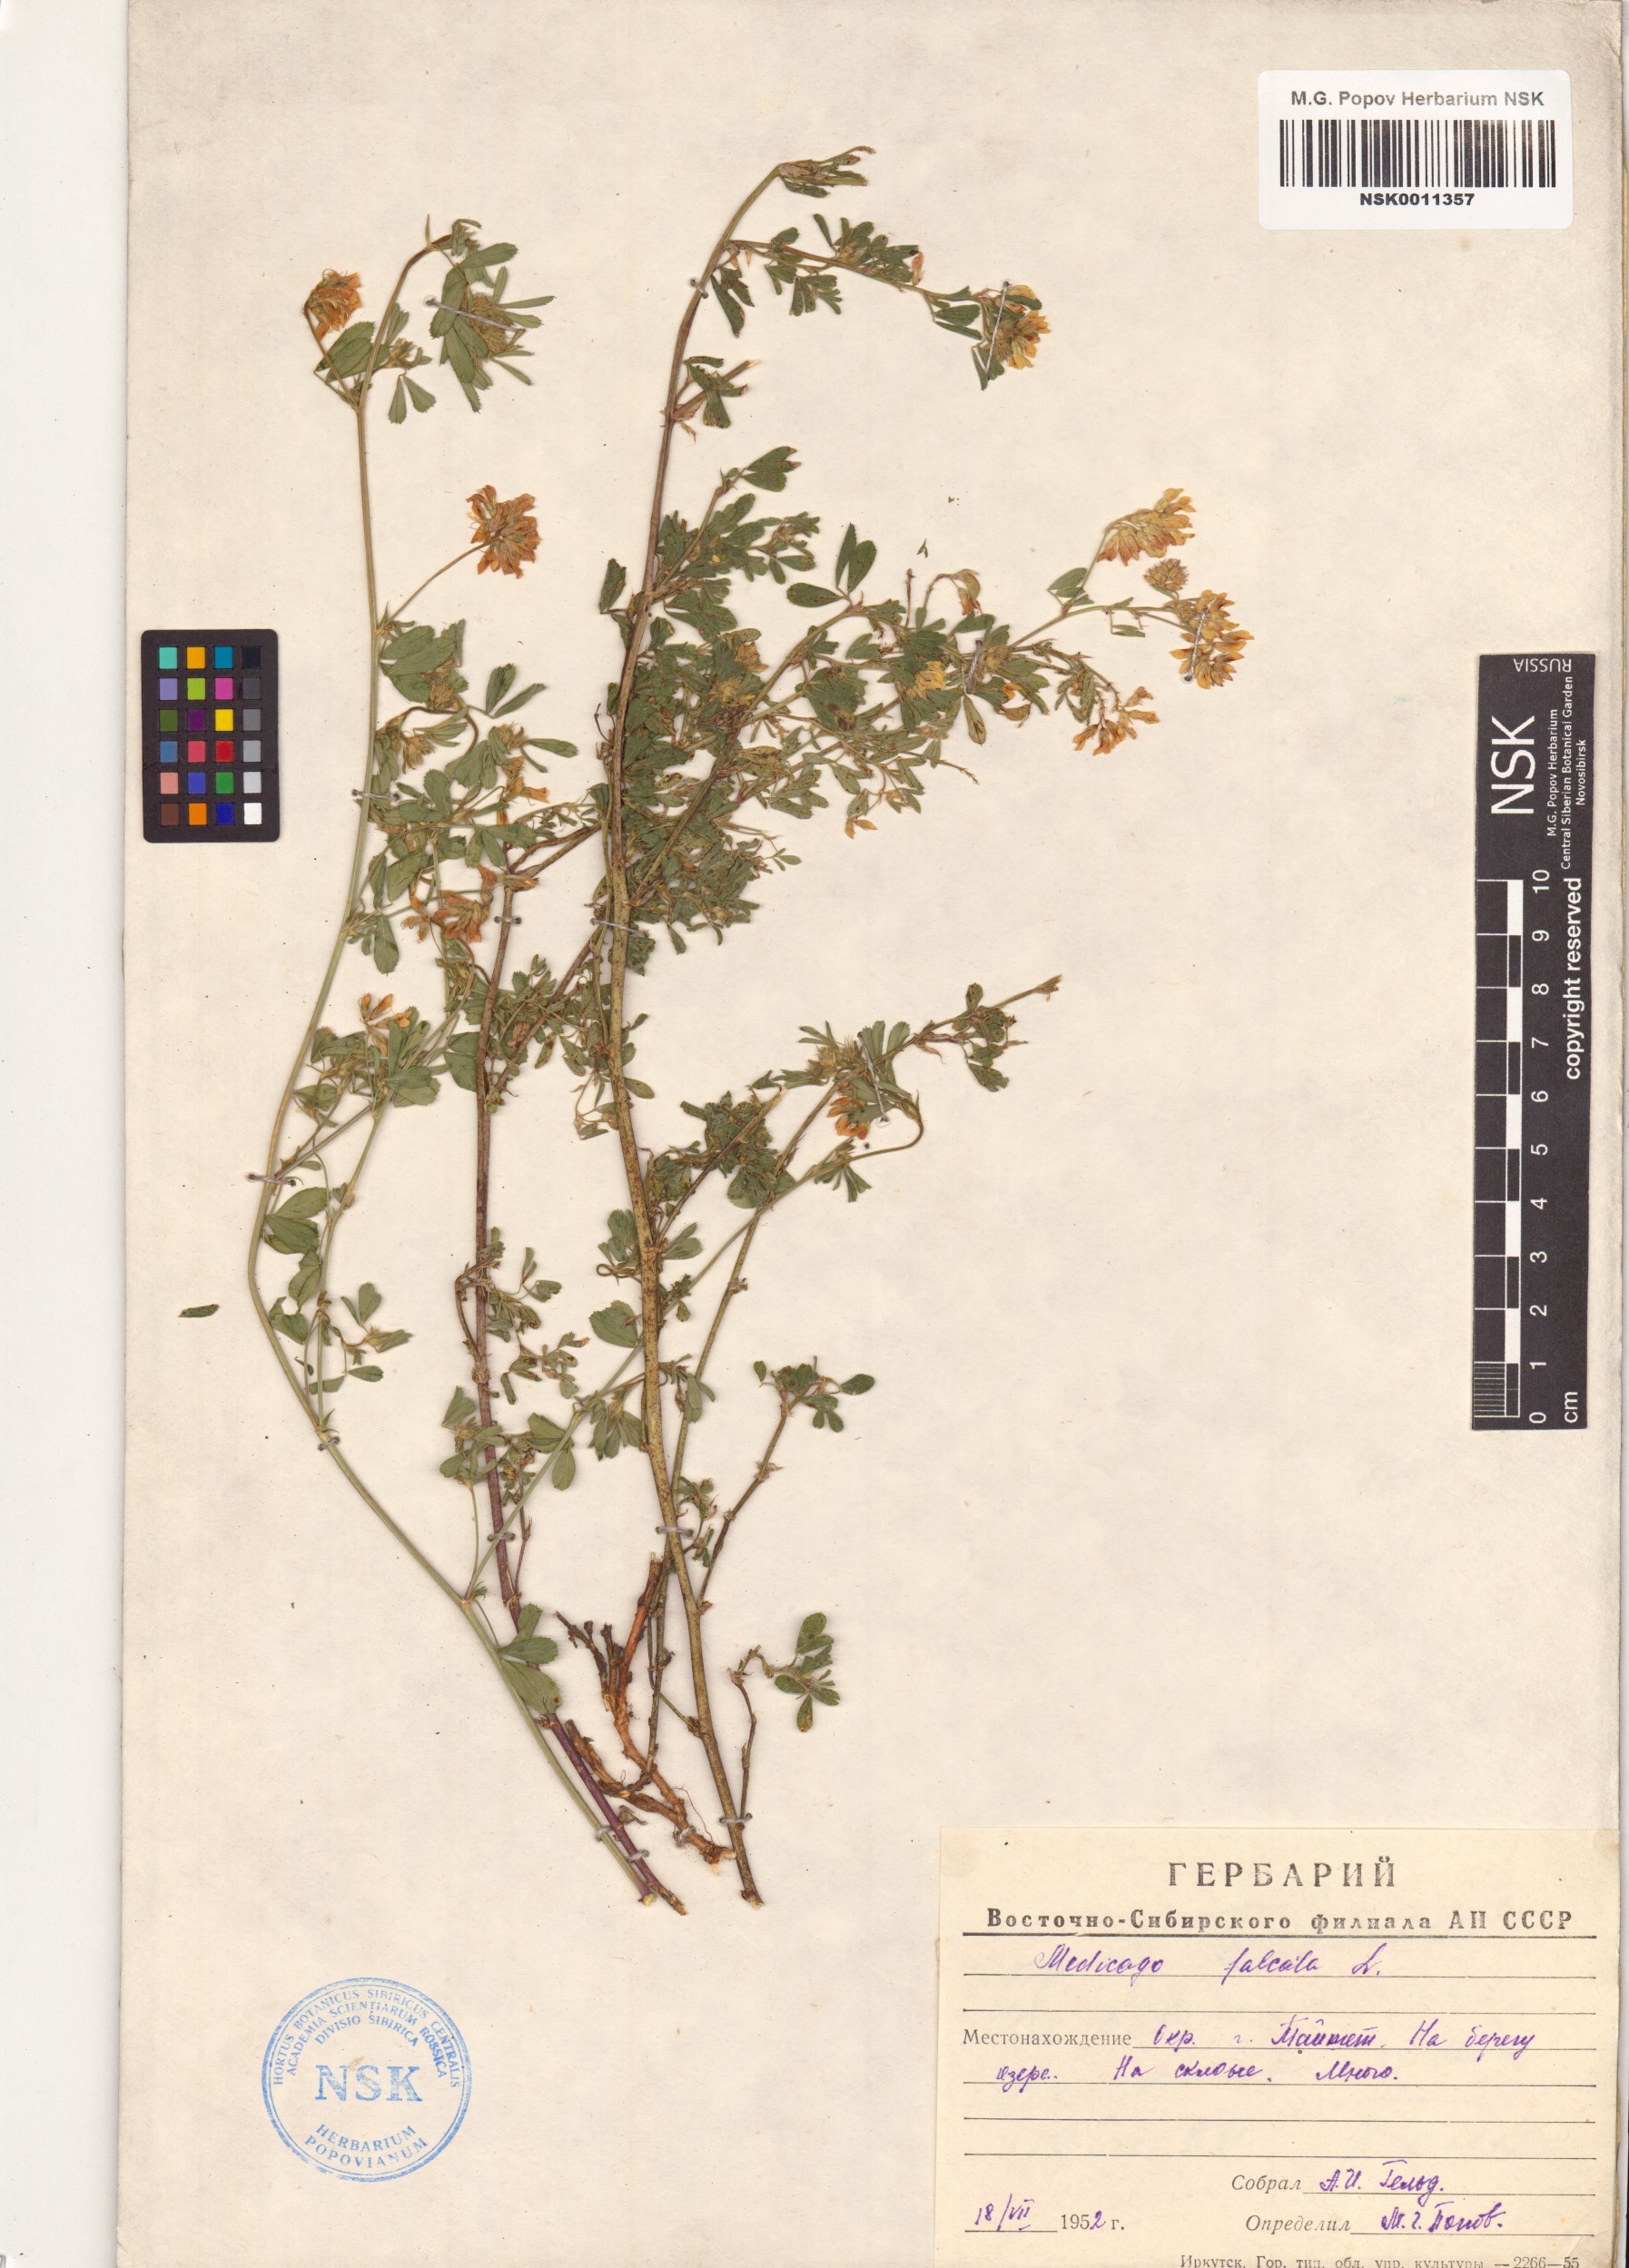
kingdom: Plantae
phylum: Tracheophyta
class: Magnoliopsida
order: Fabales
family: Fabaceae
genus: Medicago
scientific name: Medicago falcata
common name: Sickle medick
